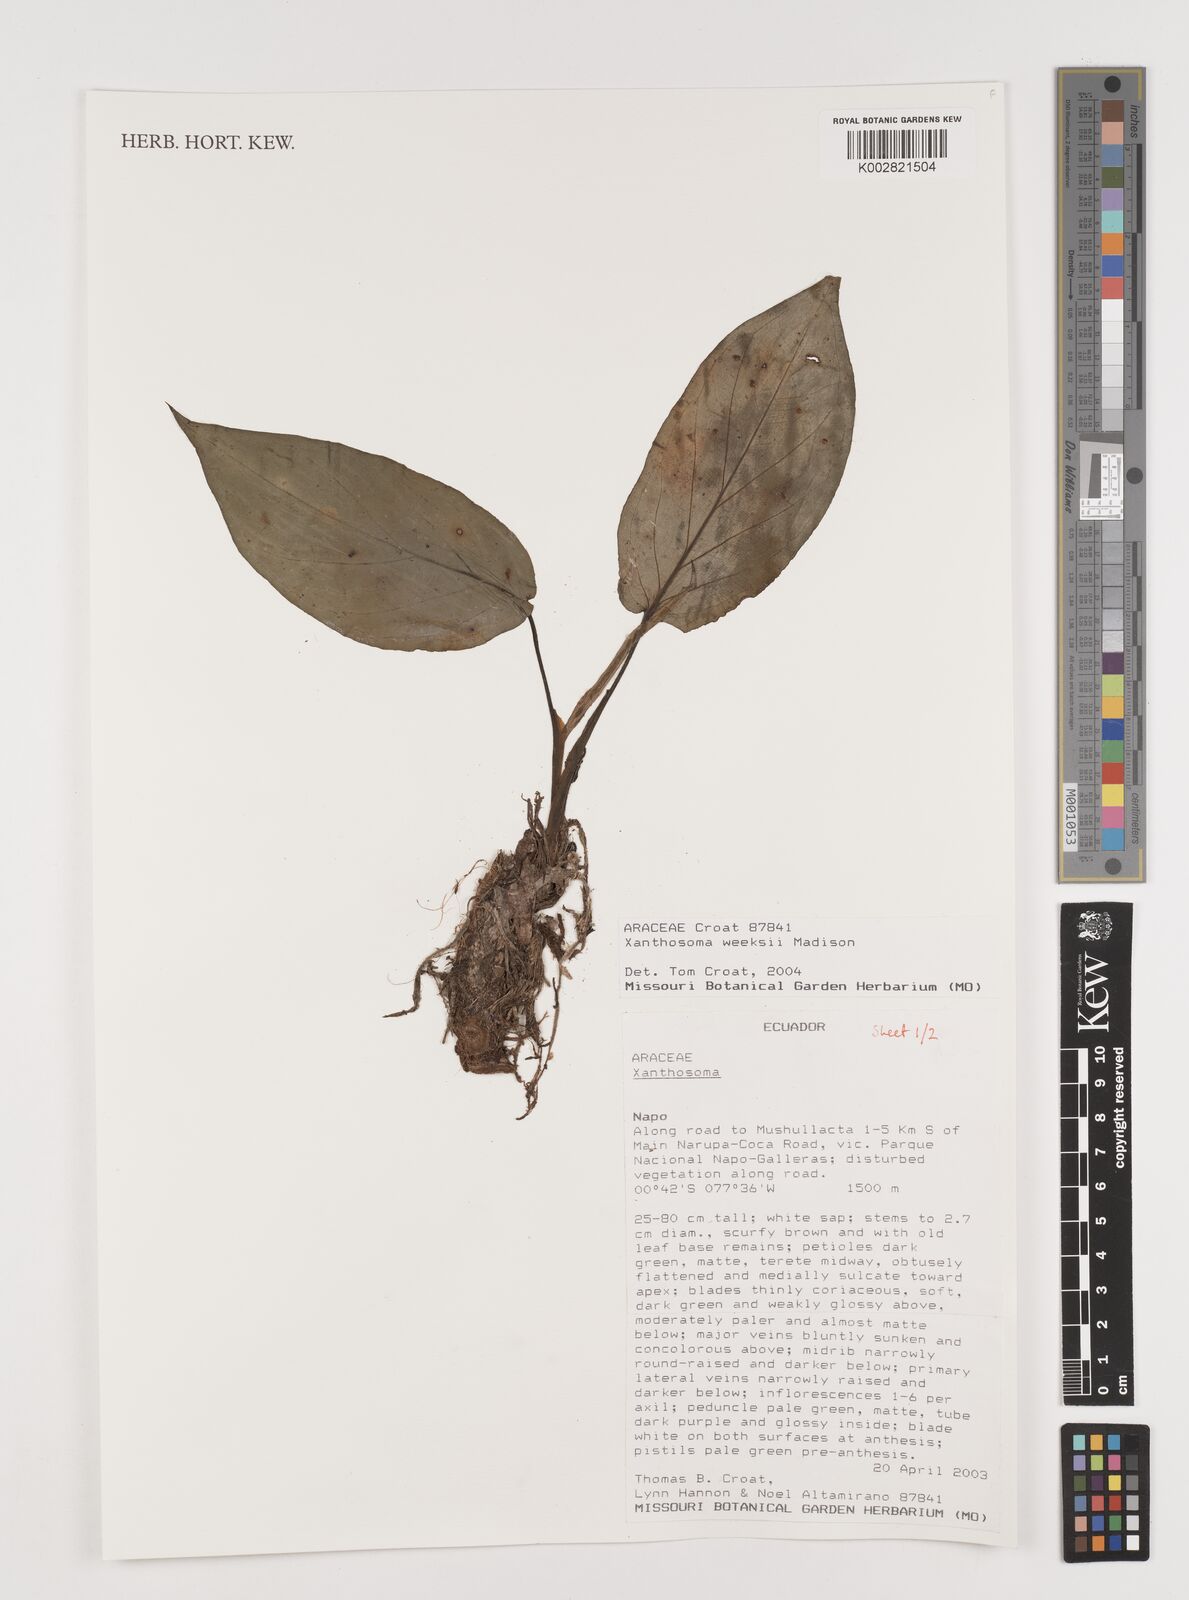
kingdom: Plantae
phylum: Tracheophyta
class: Liliopsida
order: Alismatales
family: Araceae
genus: Xanthosoma
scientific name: Xanthosoma weeksii
